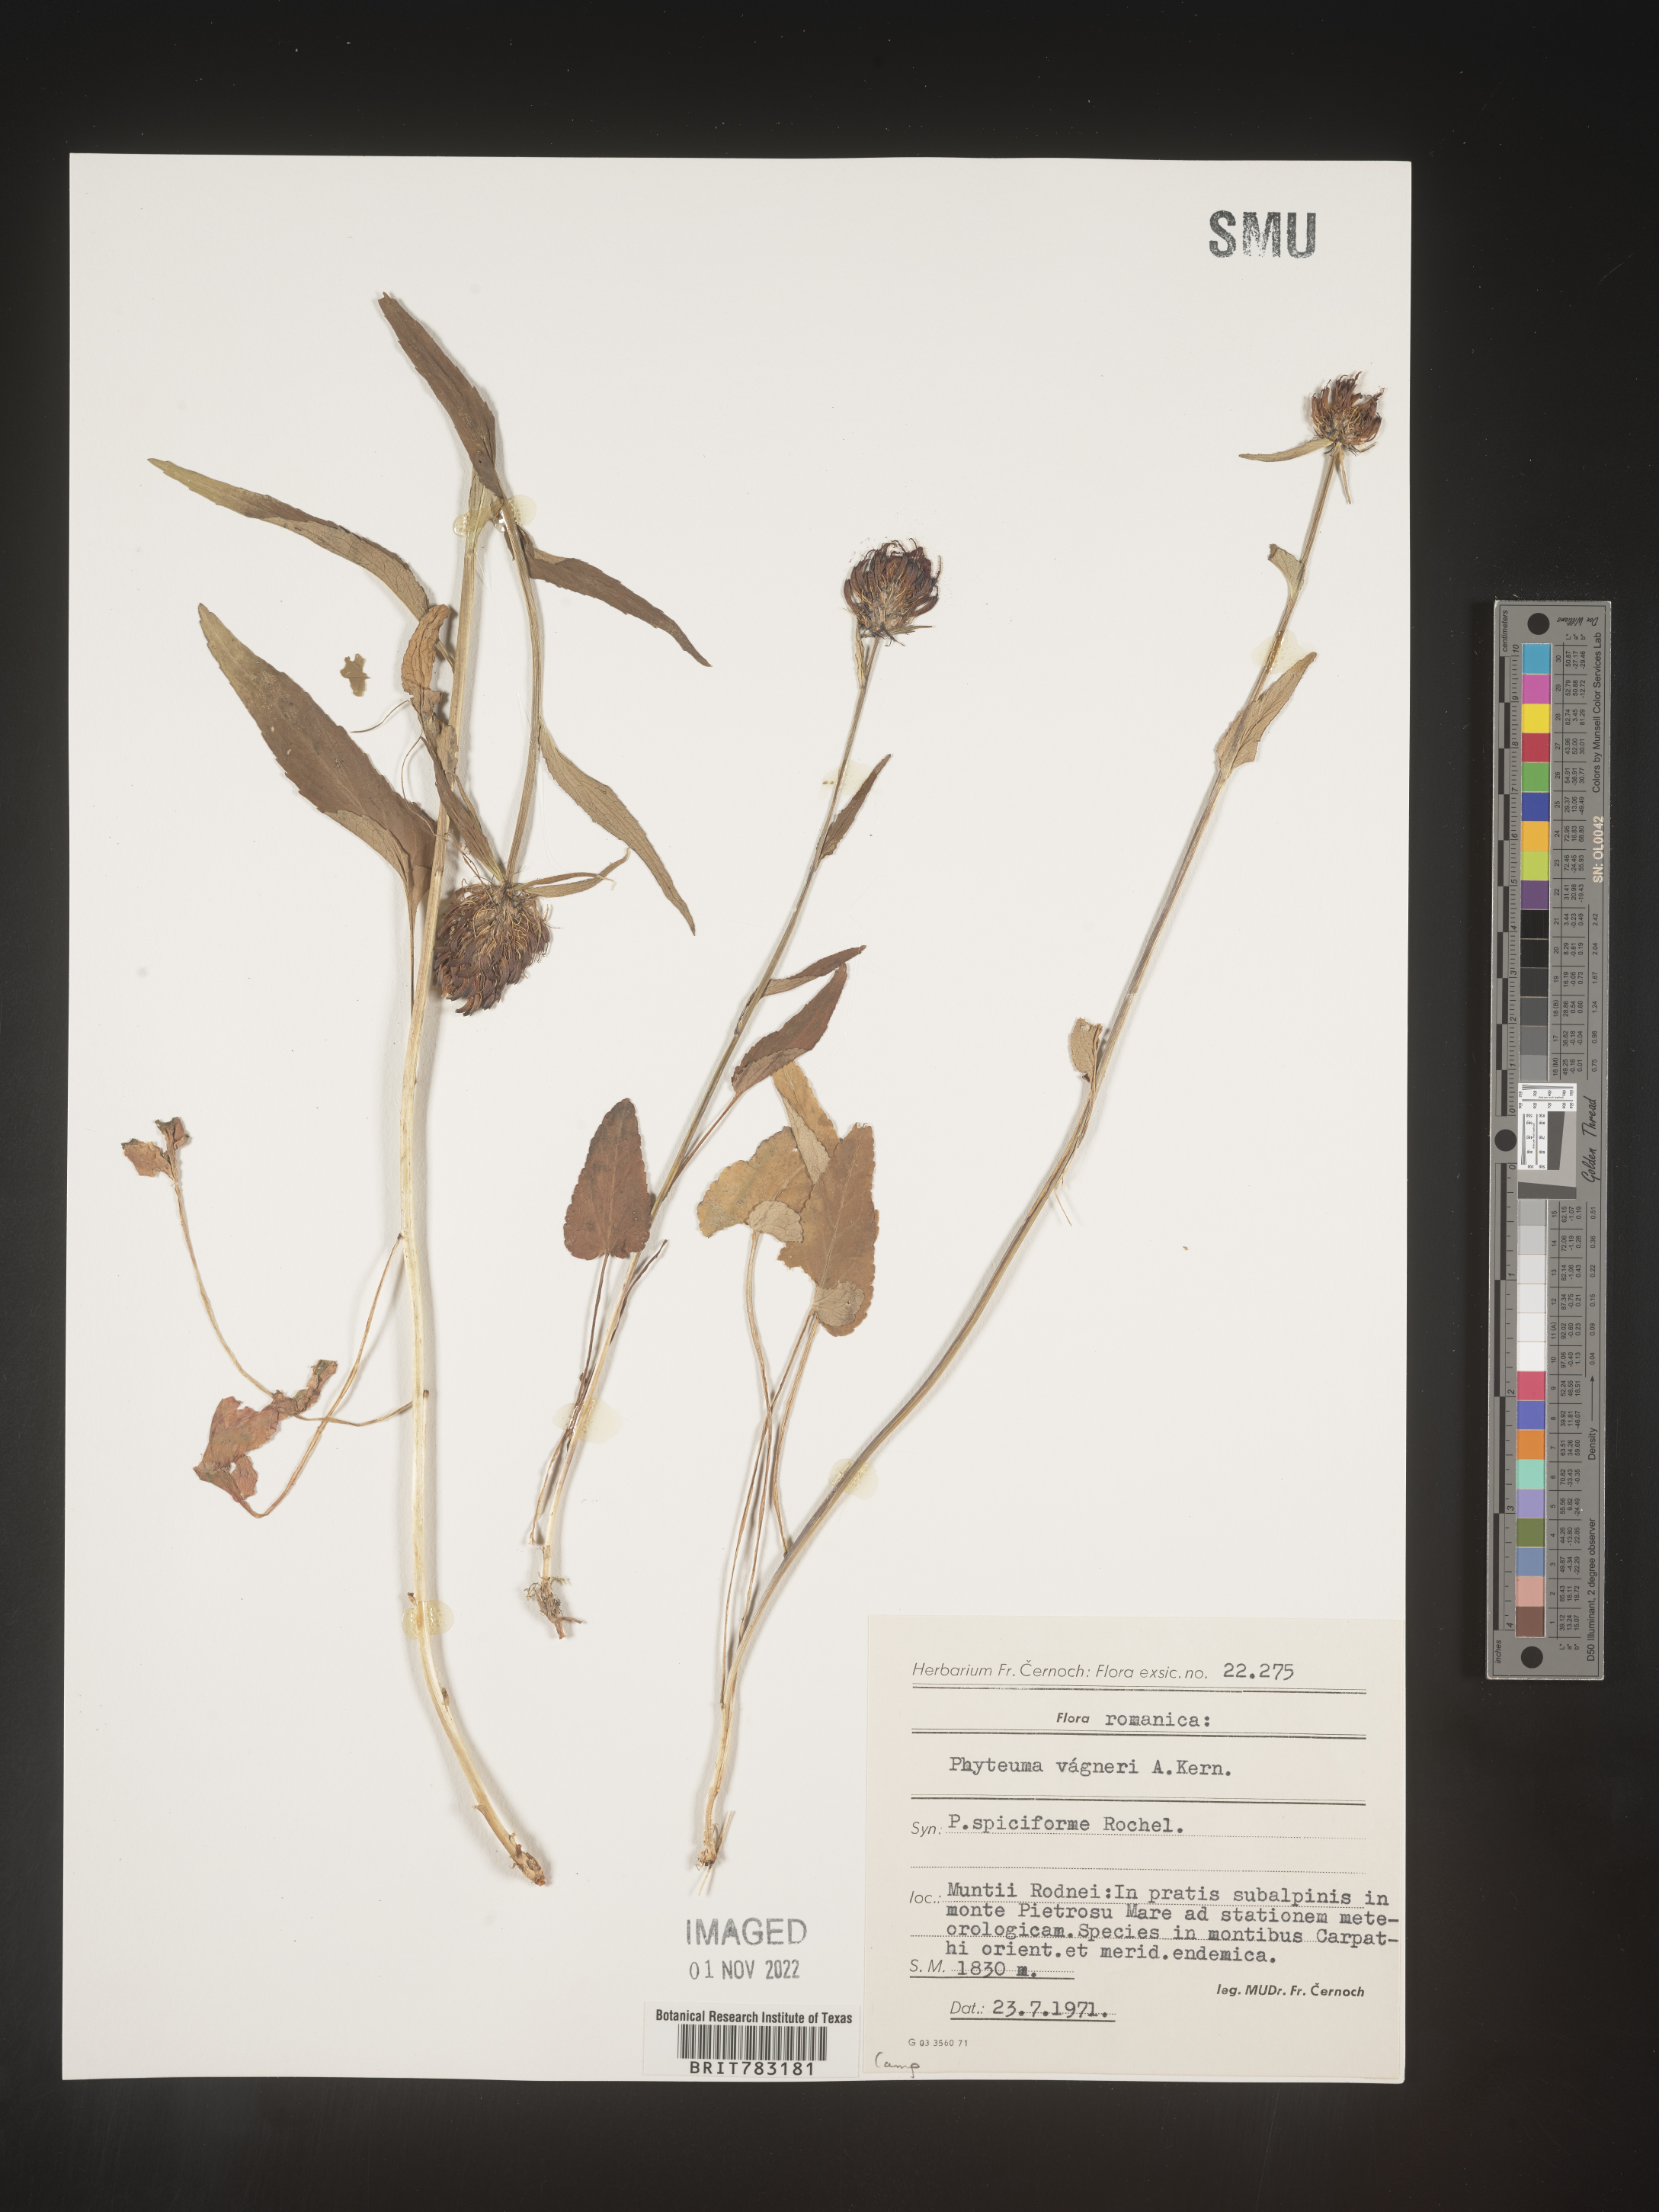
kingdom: Plantae
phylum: Tracheophyta
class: Magnoliopsida
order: Asterales
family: Campanulaceae
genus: Phyteuma
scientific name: Phyteuma
